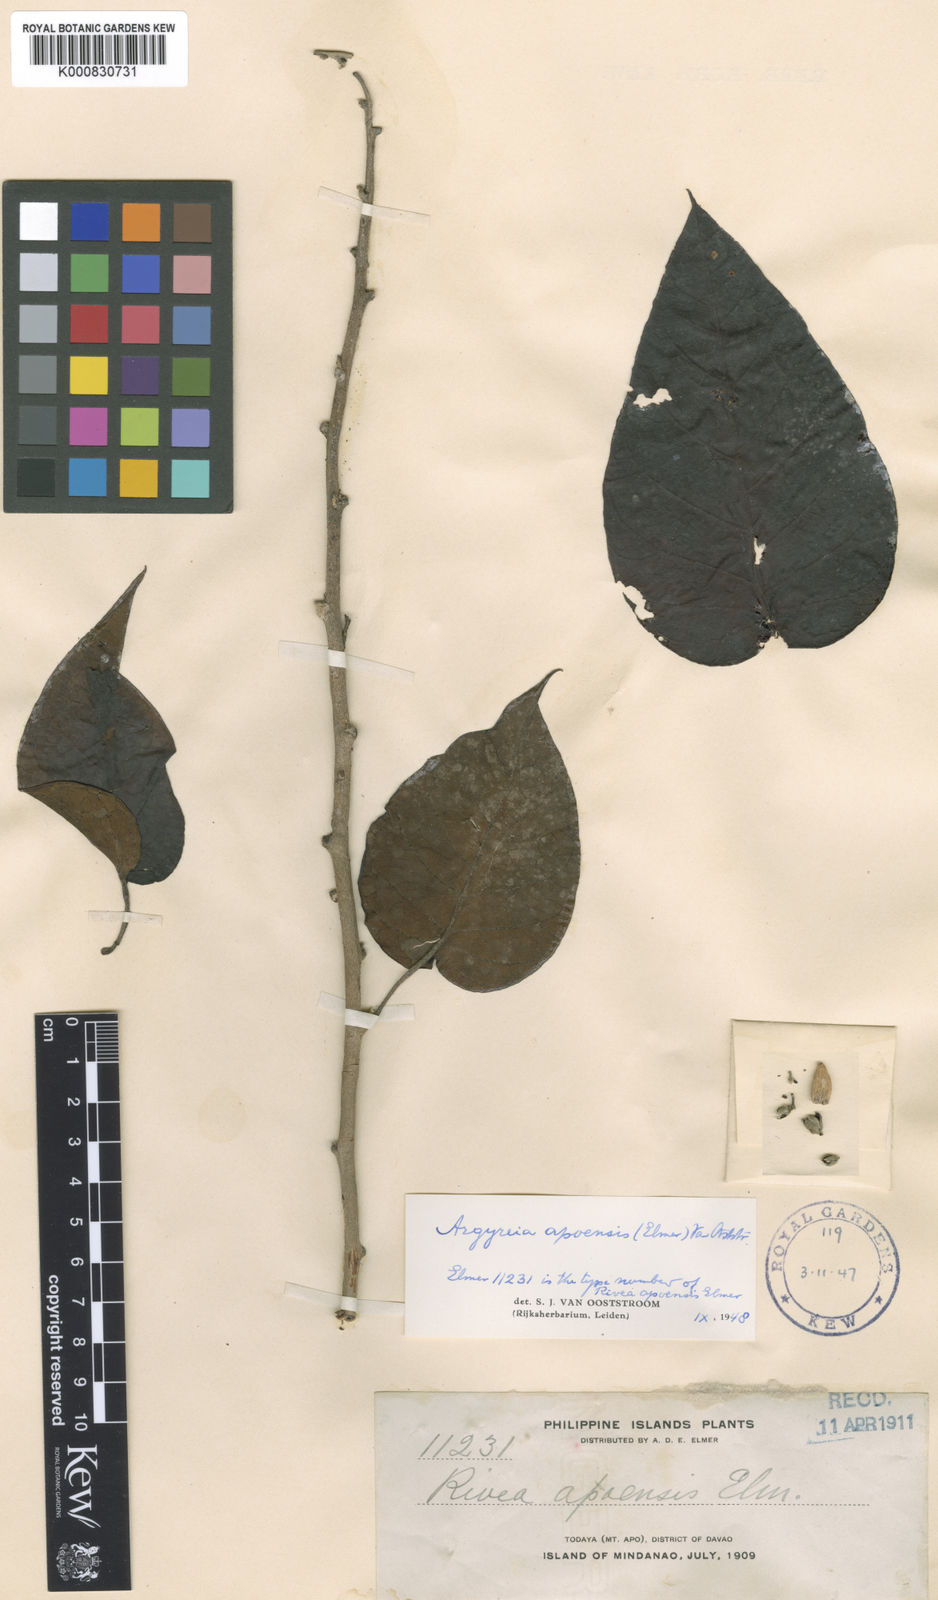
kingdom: Plantae
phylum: Tracheophyta
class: Magnoliopsida
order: Solanales
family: Convolvulaceae
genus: Argyreia
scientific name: Argyreia apoensis
